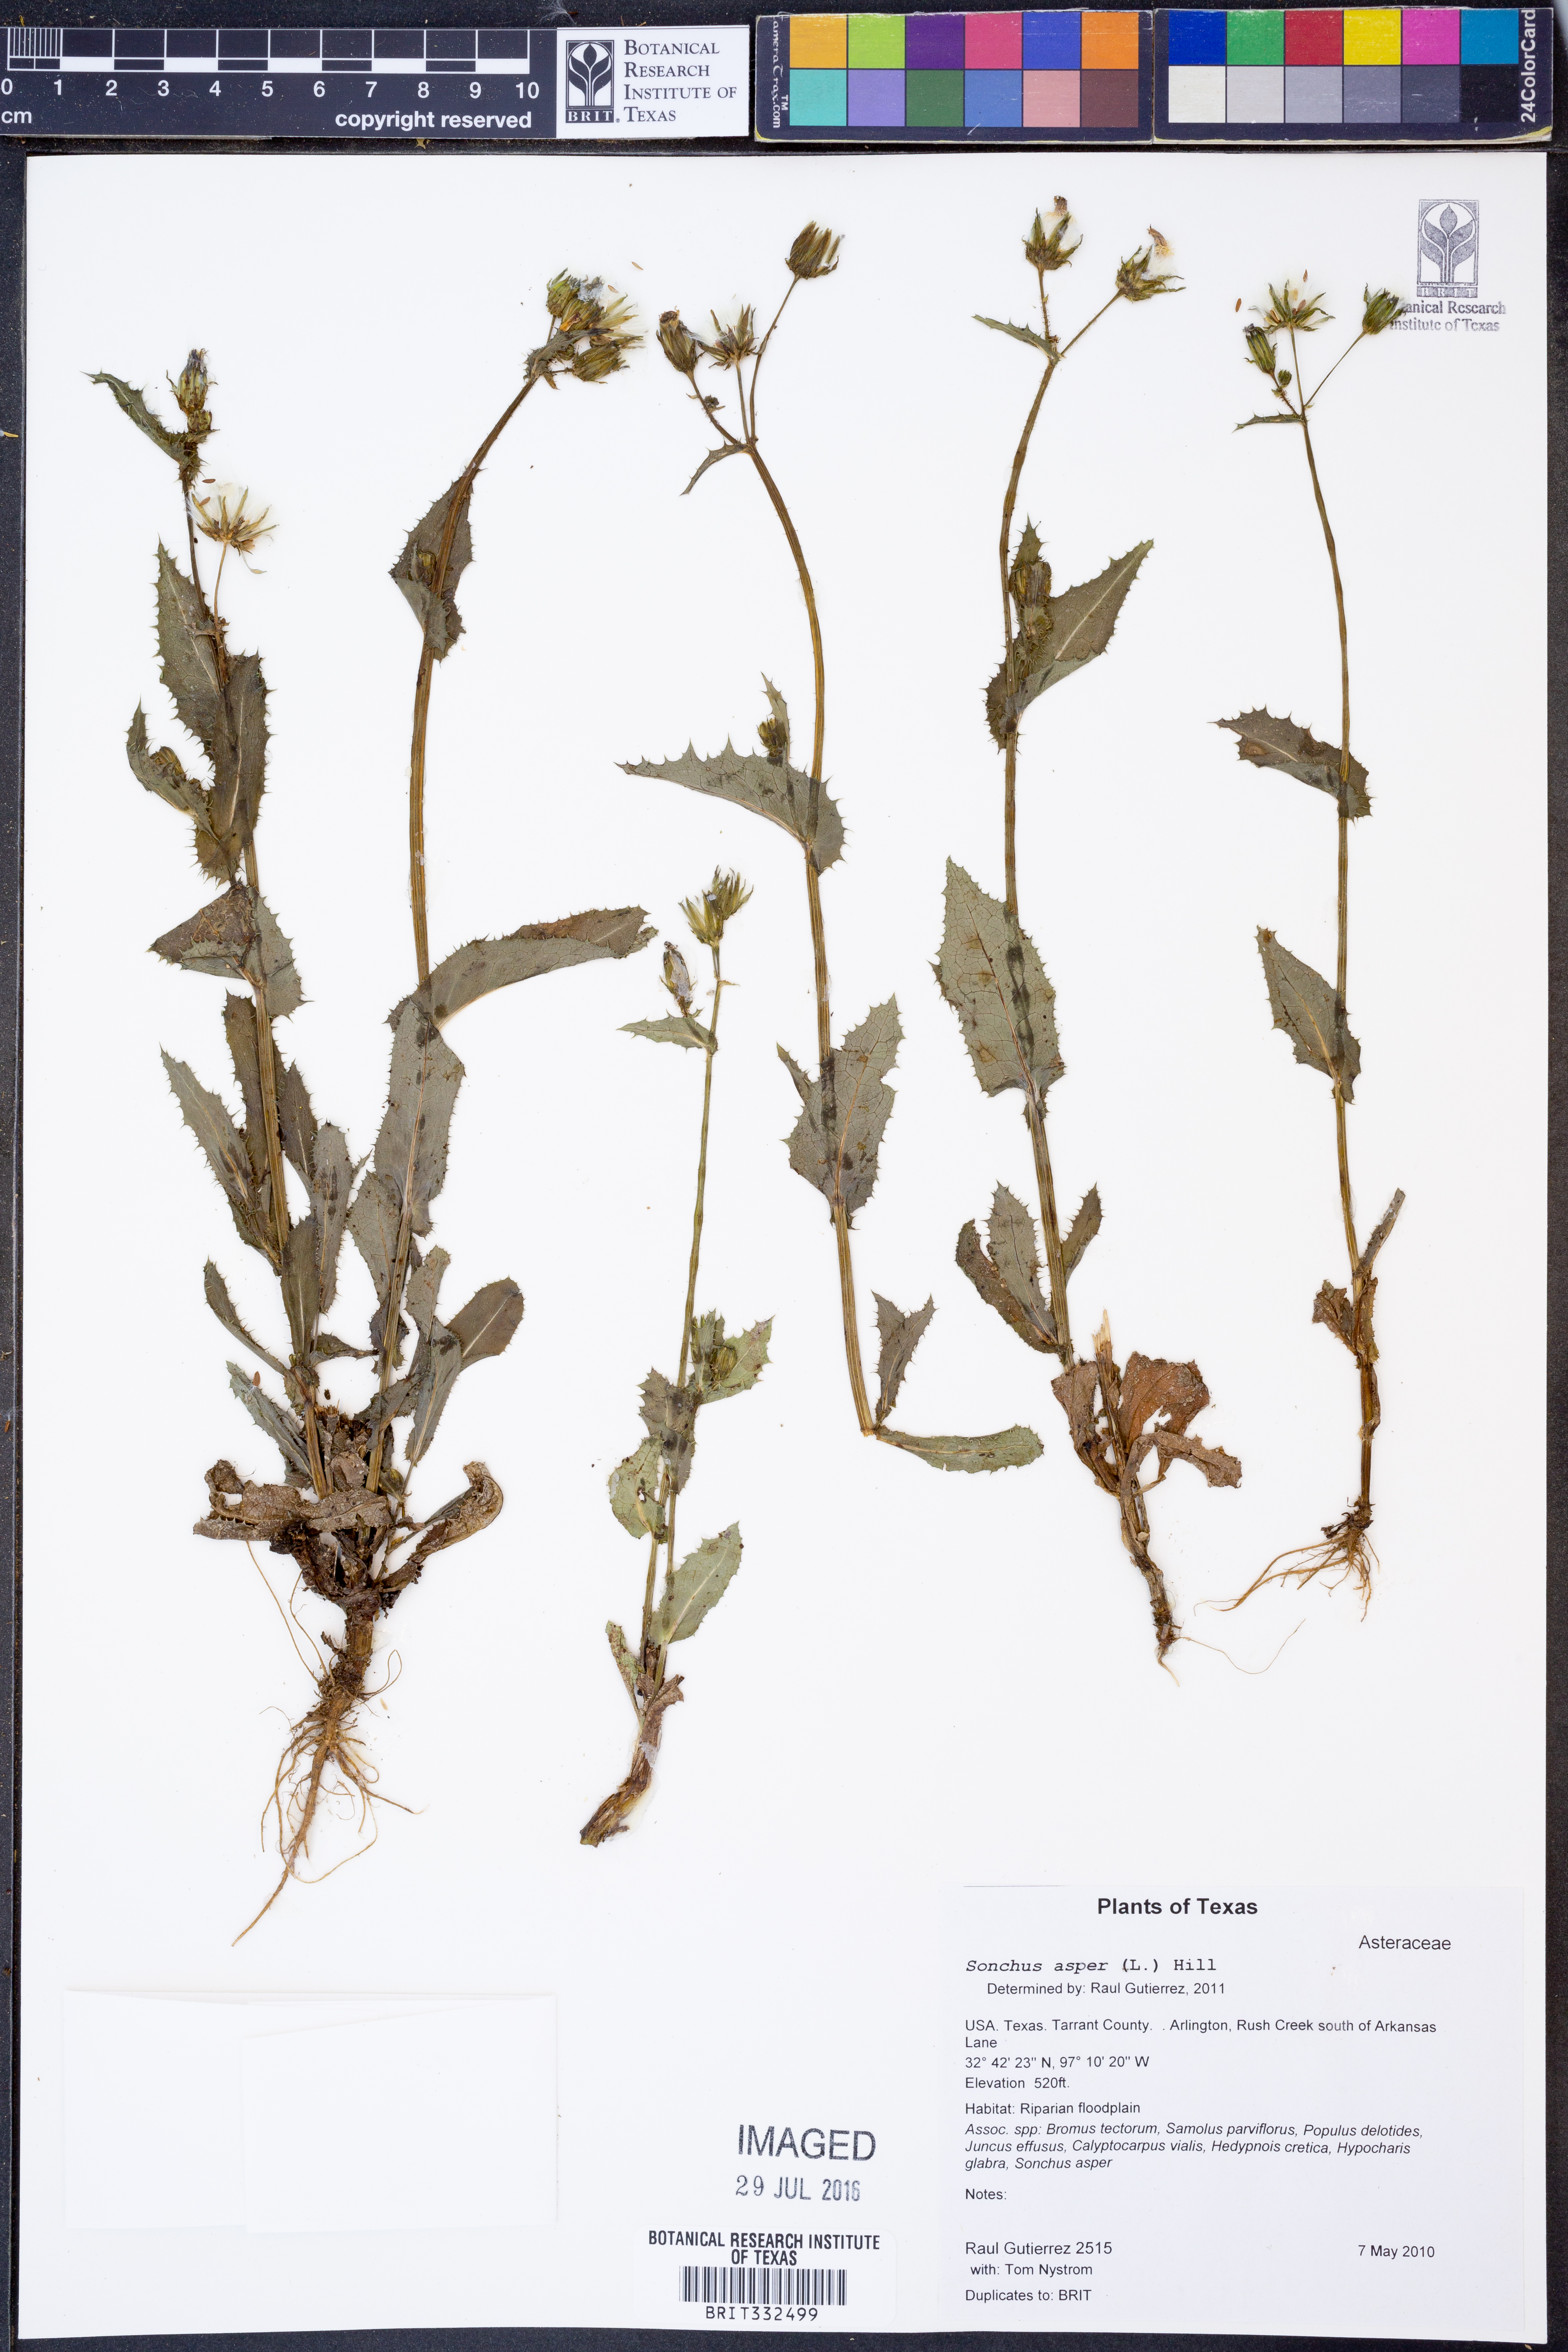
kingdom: Plantae
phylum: Tracheophyta
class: Magnoliopsida
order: Asterales
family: Asteraceae
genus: Sonchus
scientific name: Sonchus asper
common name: Prickly sow-thistle
